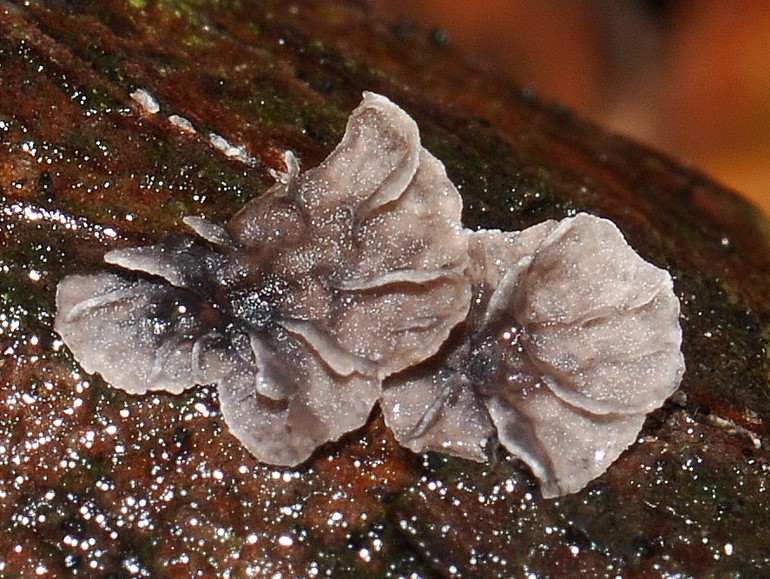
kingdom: Fungi
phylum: Basidiomycota
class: Agaricomycetes
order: Agaricales
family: Pleurotaceae
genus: Resupinatus
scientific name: Resupinatus applicatus
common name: lysfiltet barkhat
